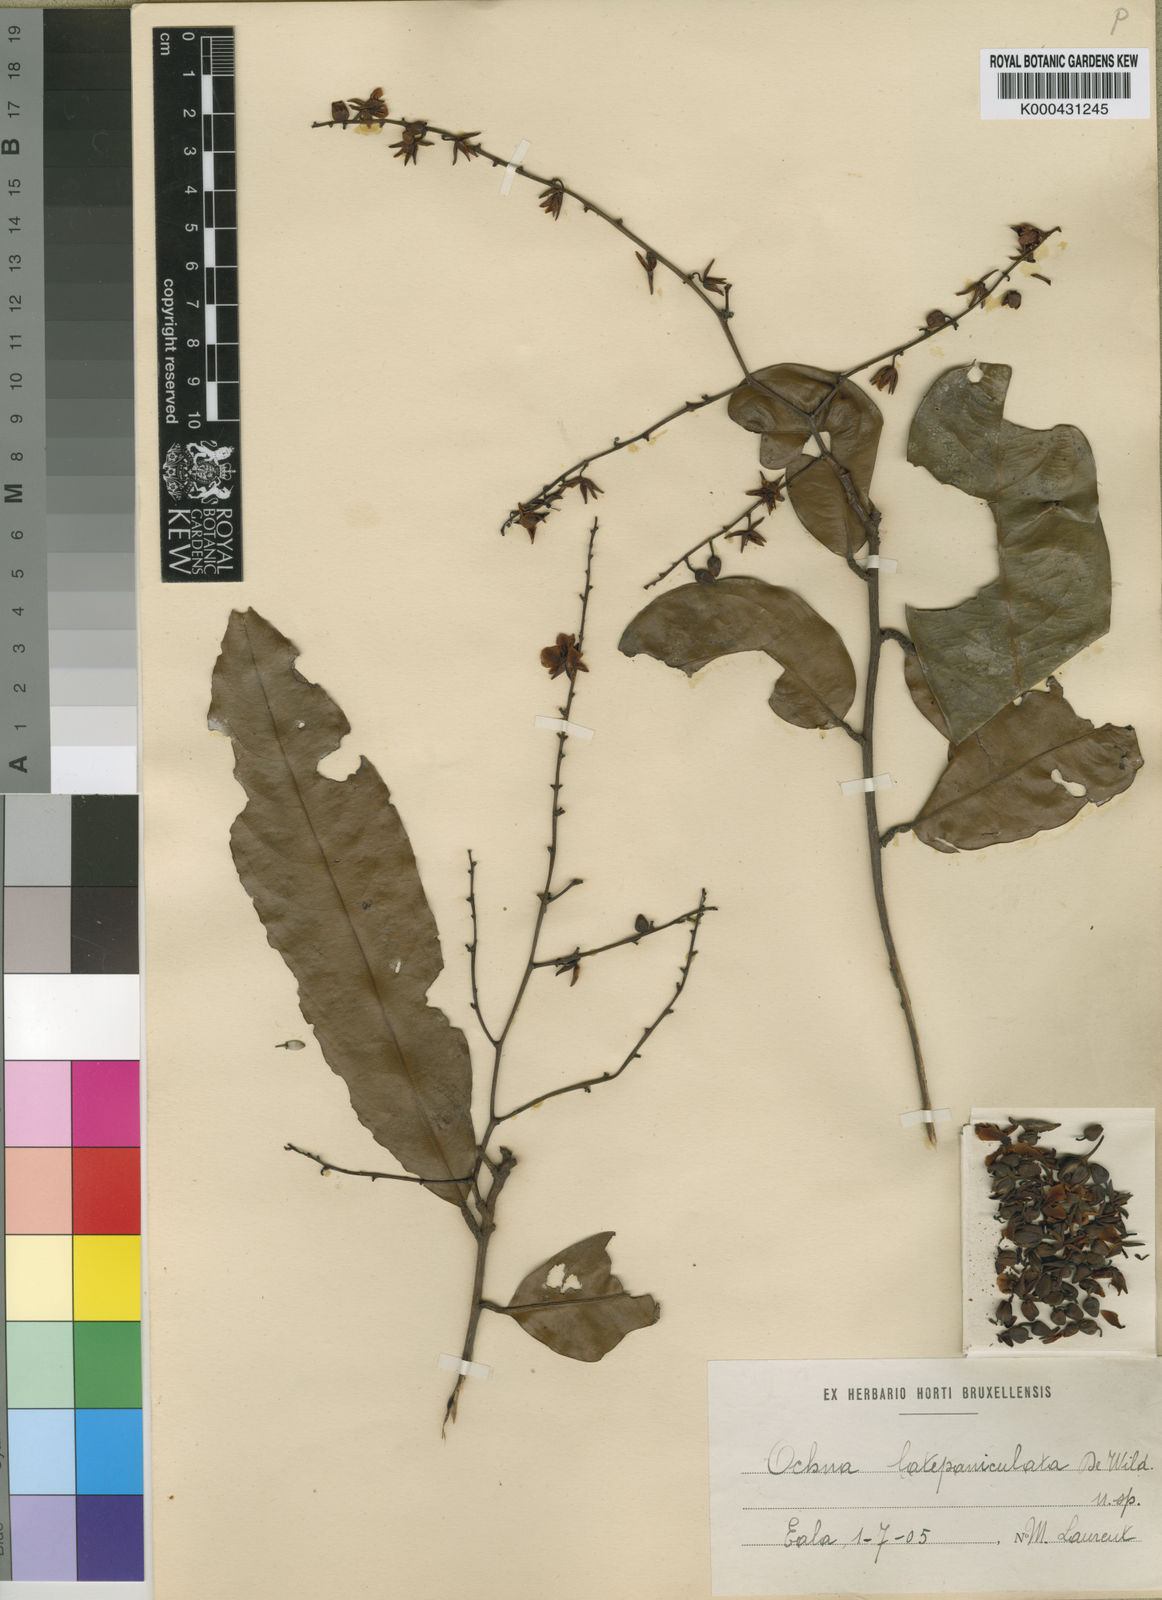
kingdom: Plantae
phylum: Tracheophyta
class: Magnoliopsida
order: Malpighiales
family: Ochnaceae
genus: Campylospermum
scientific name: Campylospermum dybovskii
